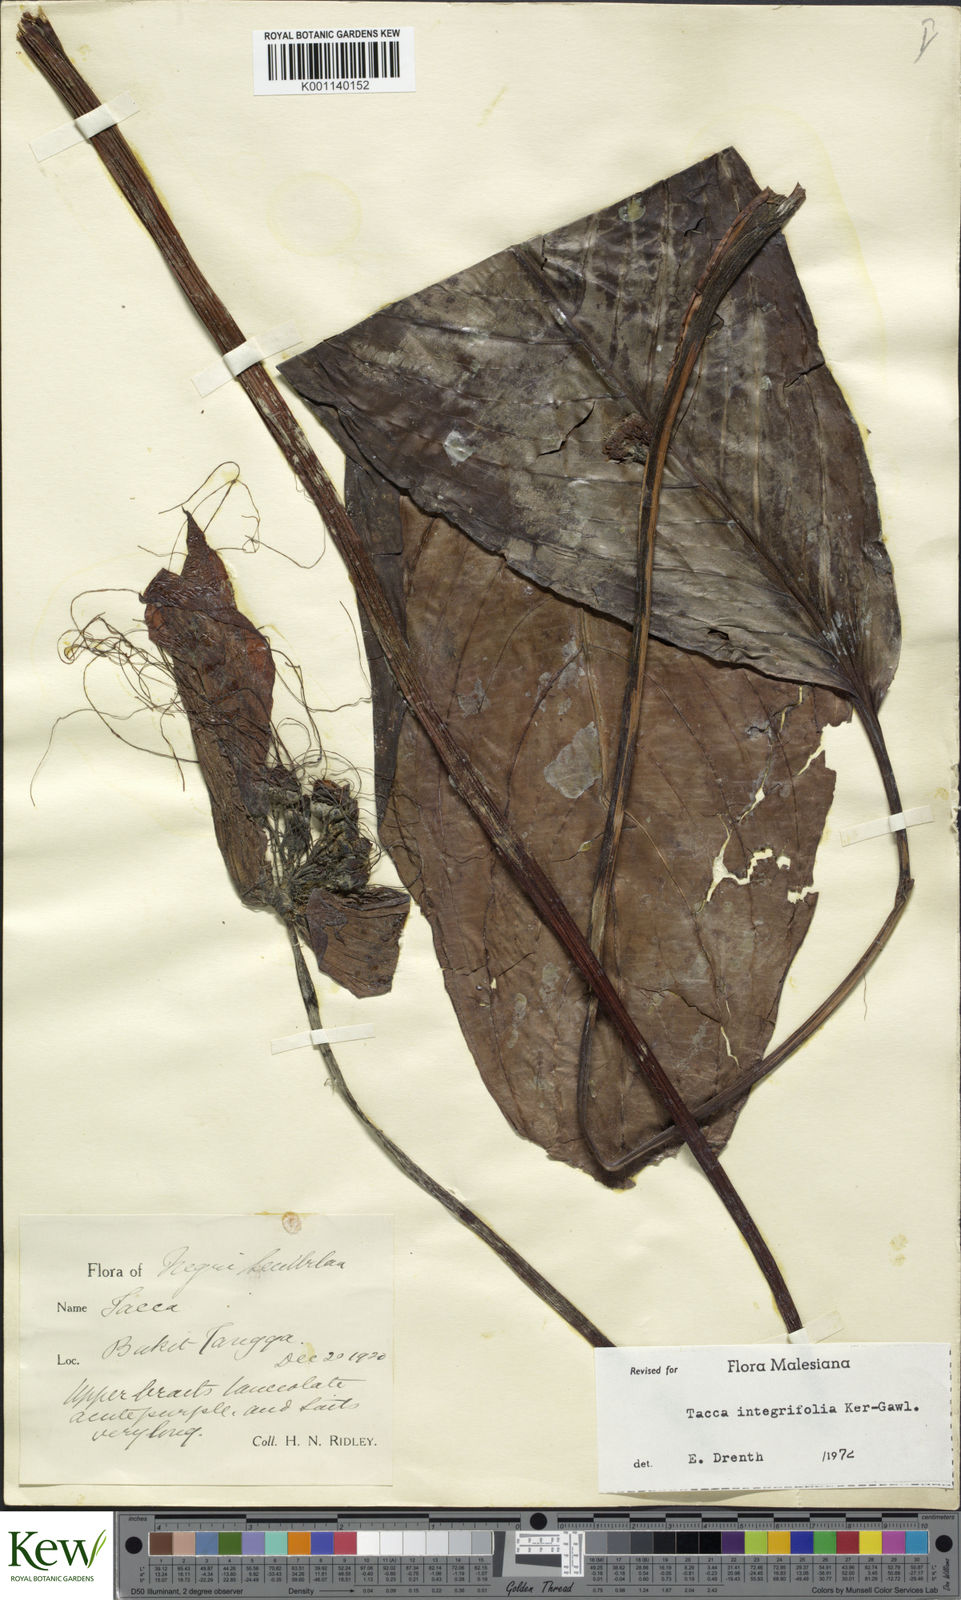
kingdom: Plantae
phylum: Tracheophyta
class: Liliopsida
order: Dioscoreales
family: Dioscoreaceae
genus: Tacca
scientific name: Tacca integrifolia
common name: Batplant
